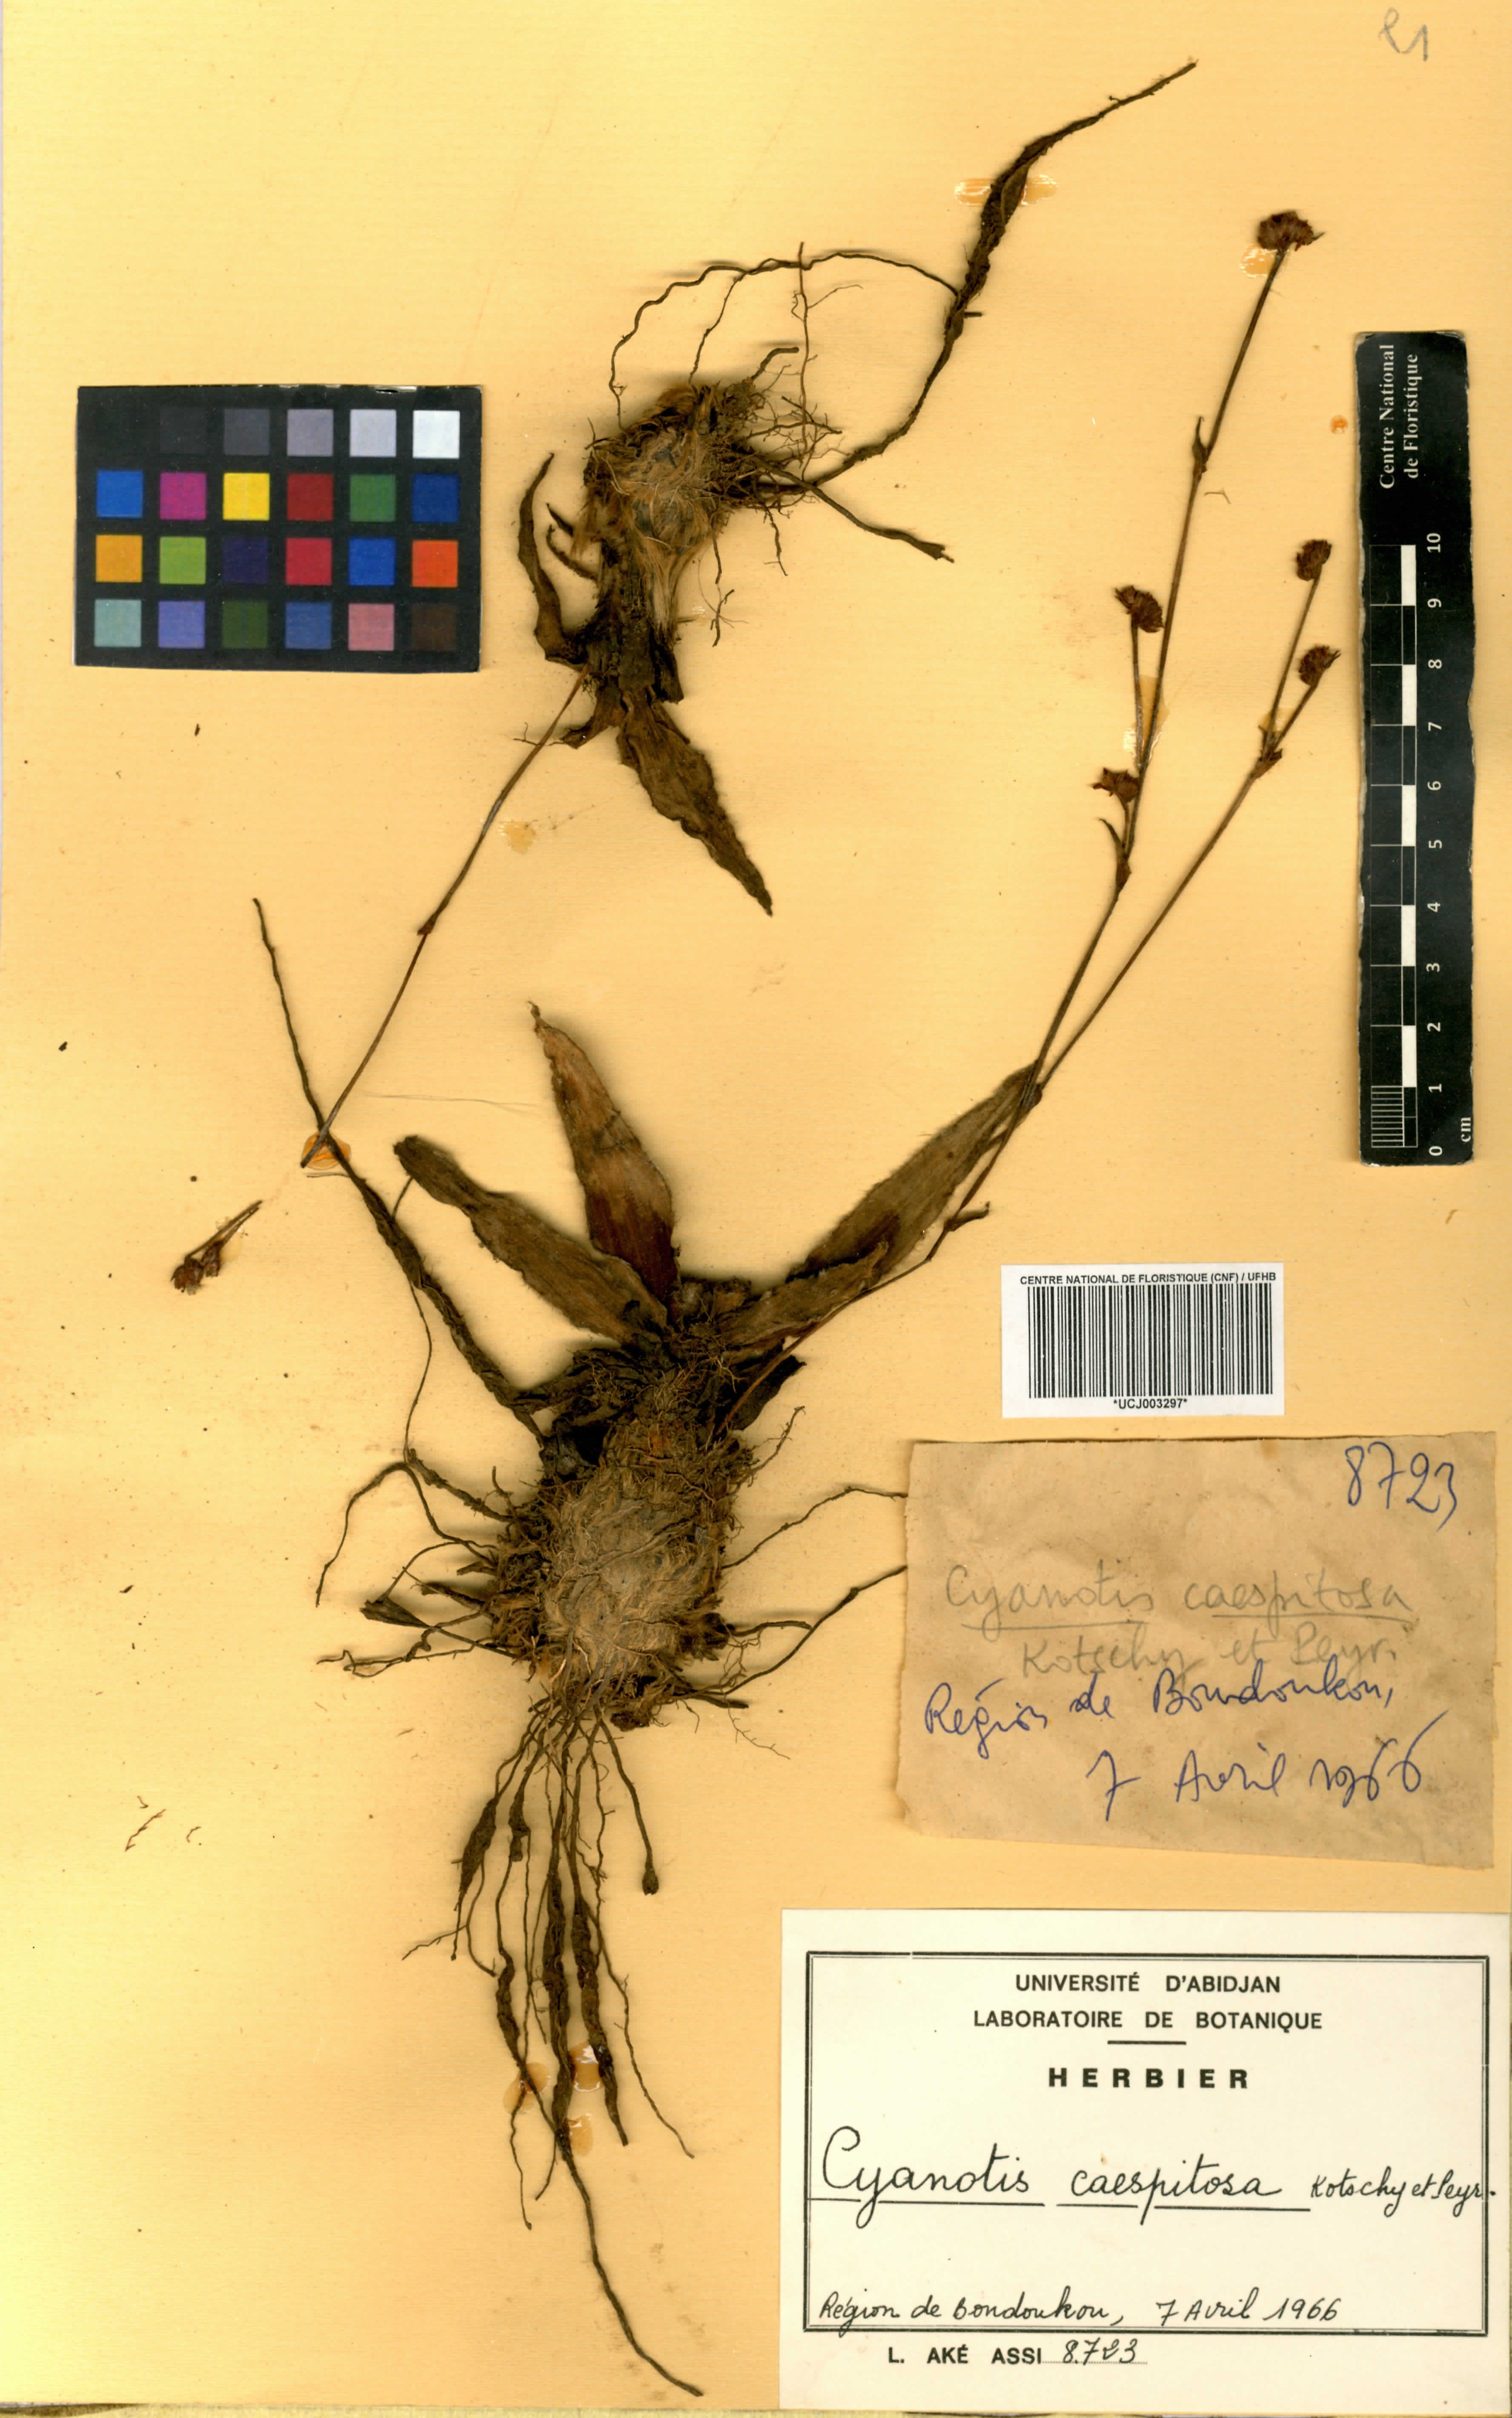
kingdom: Plantae
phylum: Tracheophyta
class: Liliopsida
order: Commelinales
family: Commelinaceae
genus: Cyanotis
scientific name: Cyanotis caespitosa
